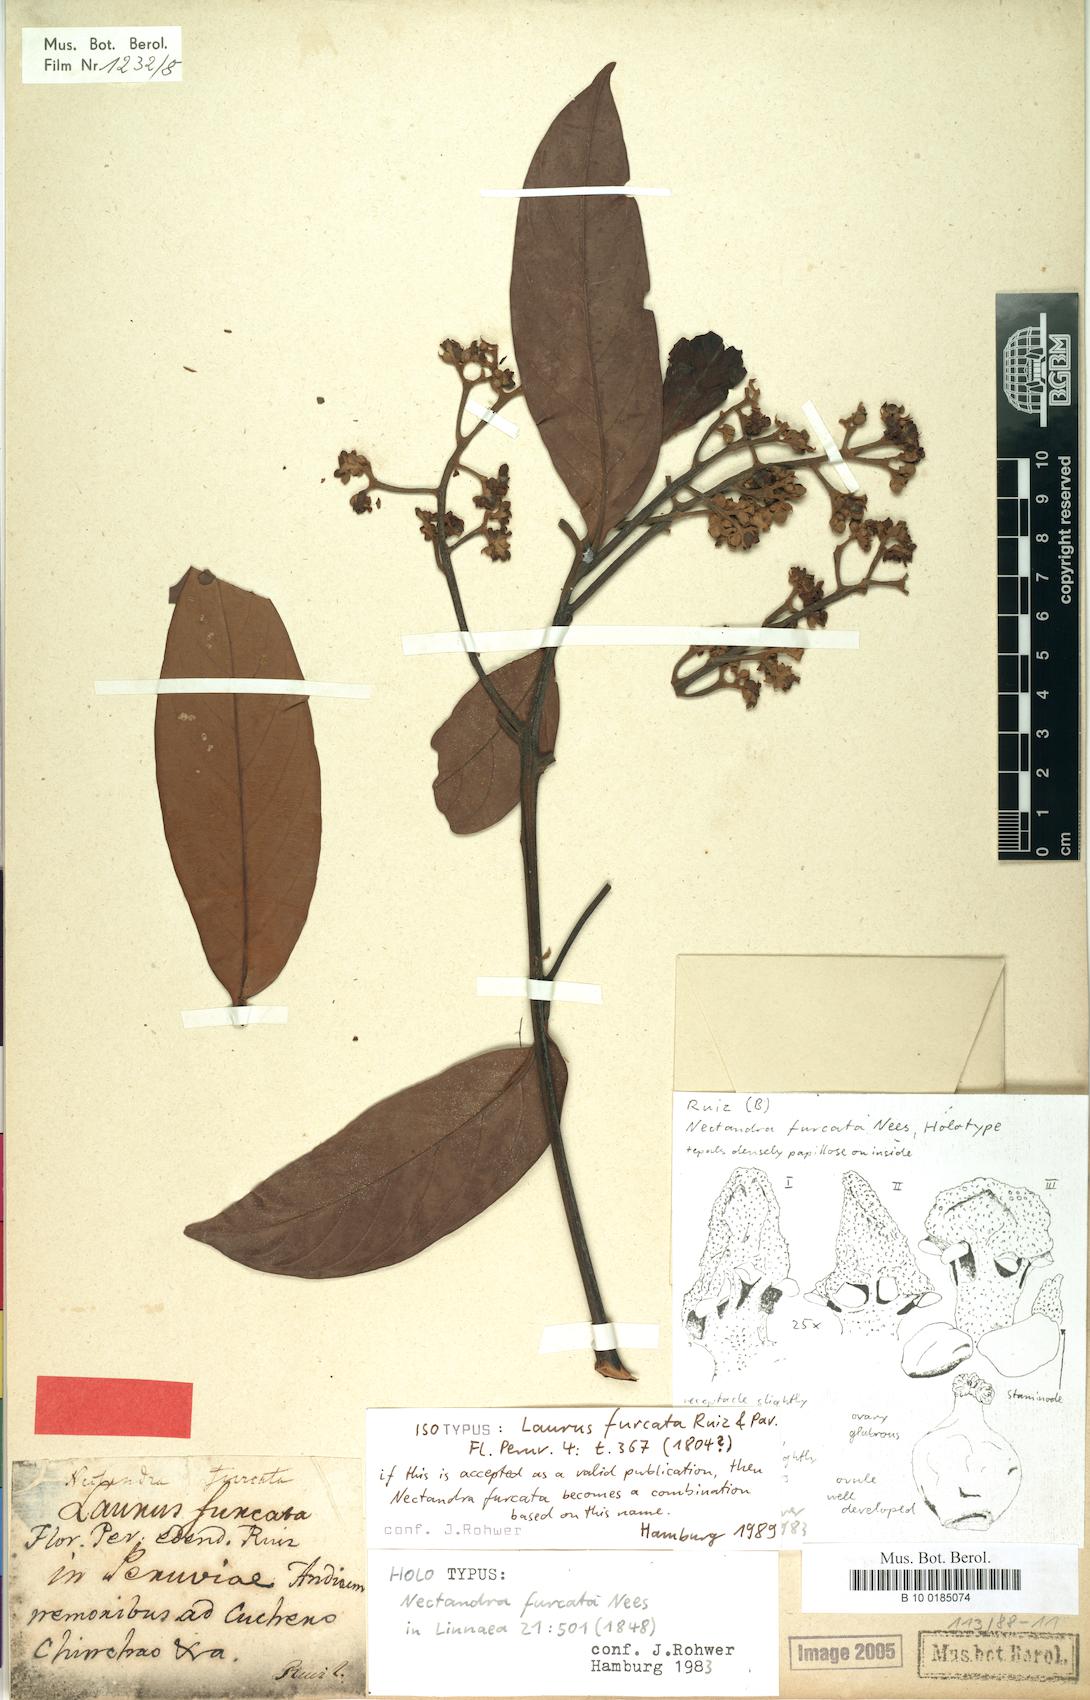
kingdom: Plantae
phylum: Tracheophyta
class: Magnoliopsida
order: Laurales
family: Lauraceae
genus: Nectandra
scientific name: Nectandra furcata
